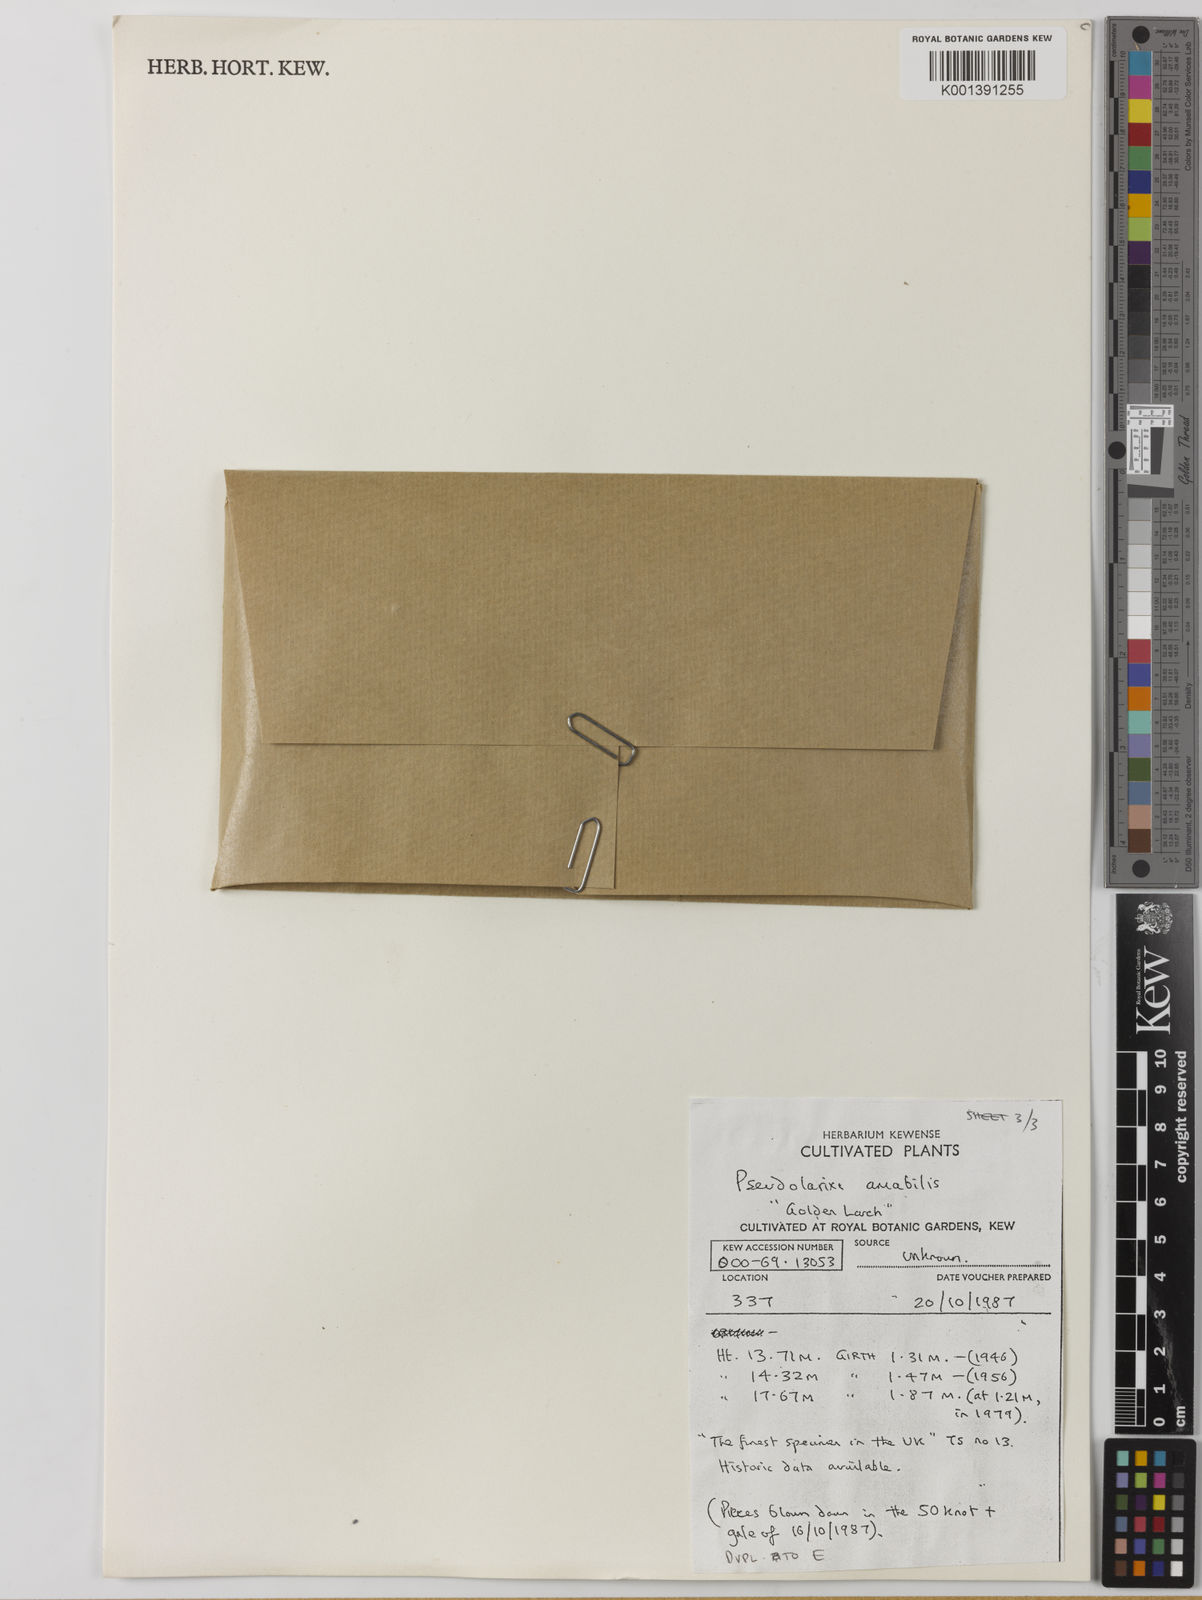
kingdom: Plantae
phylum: Tracheophyta
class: Pinopsida
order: Pinales
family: Pinaceae
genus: Pseudolarix
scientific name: Pseudolarix amabilis
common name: Chinese golden larch
